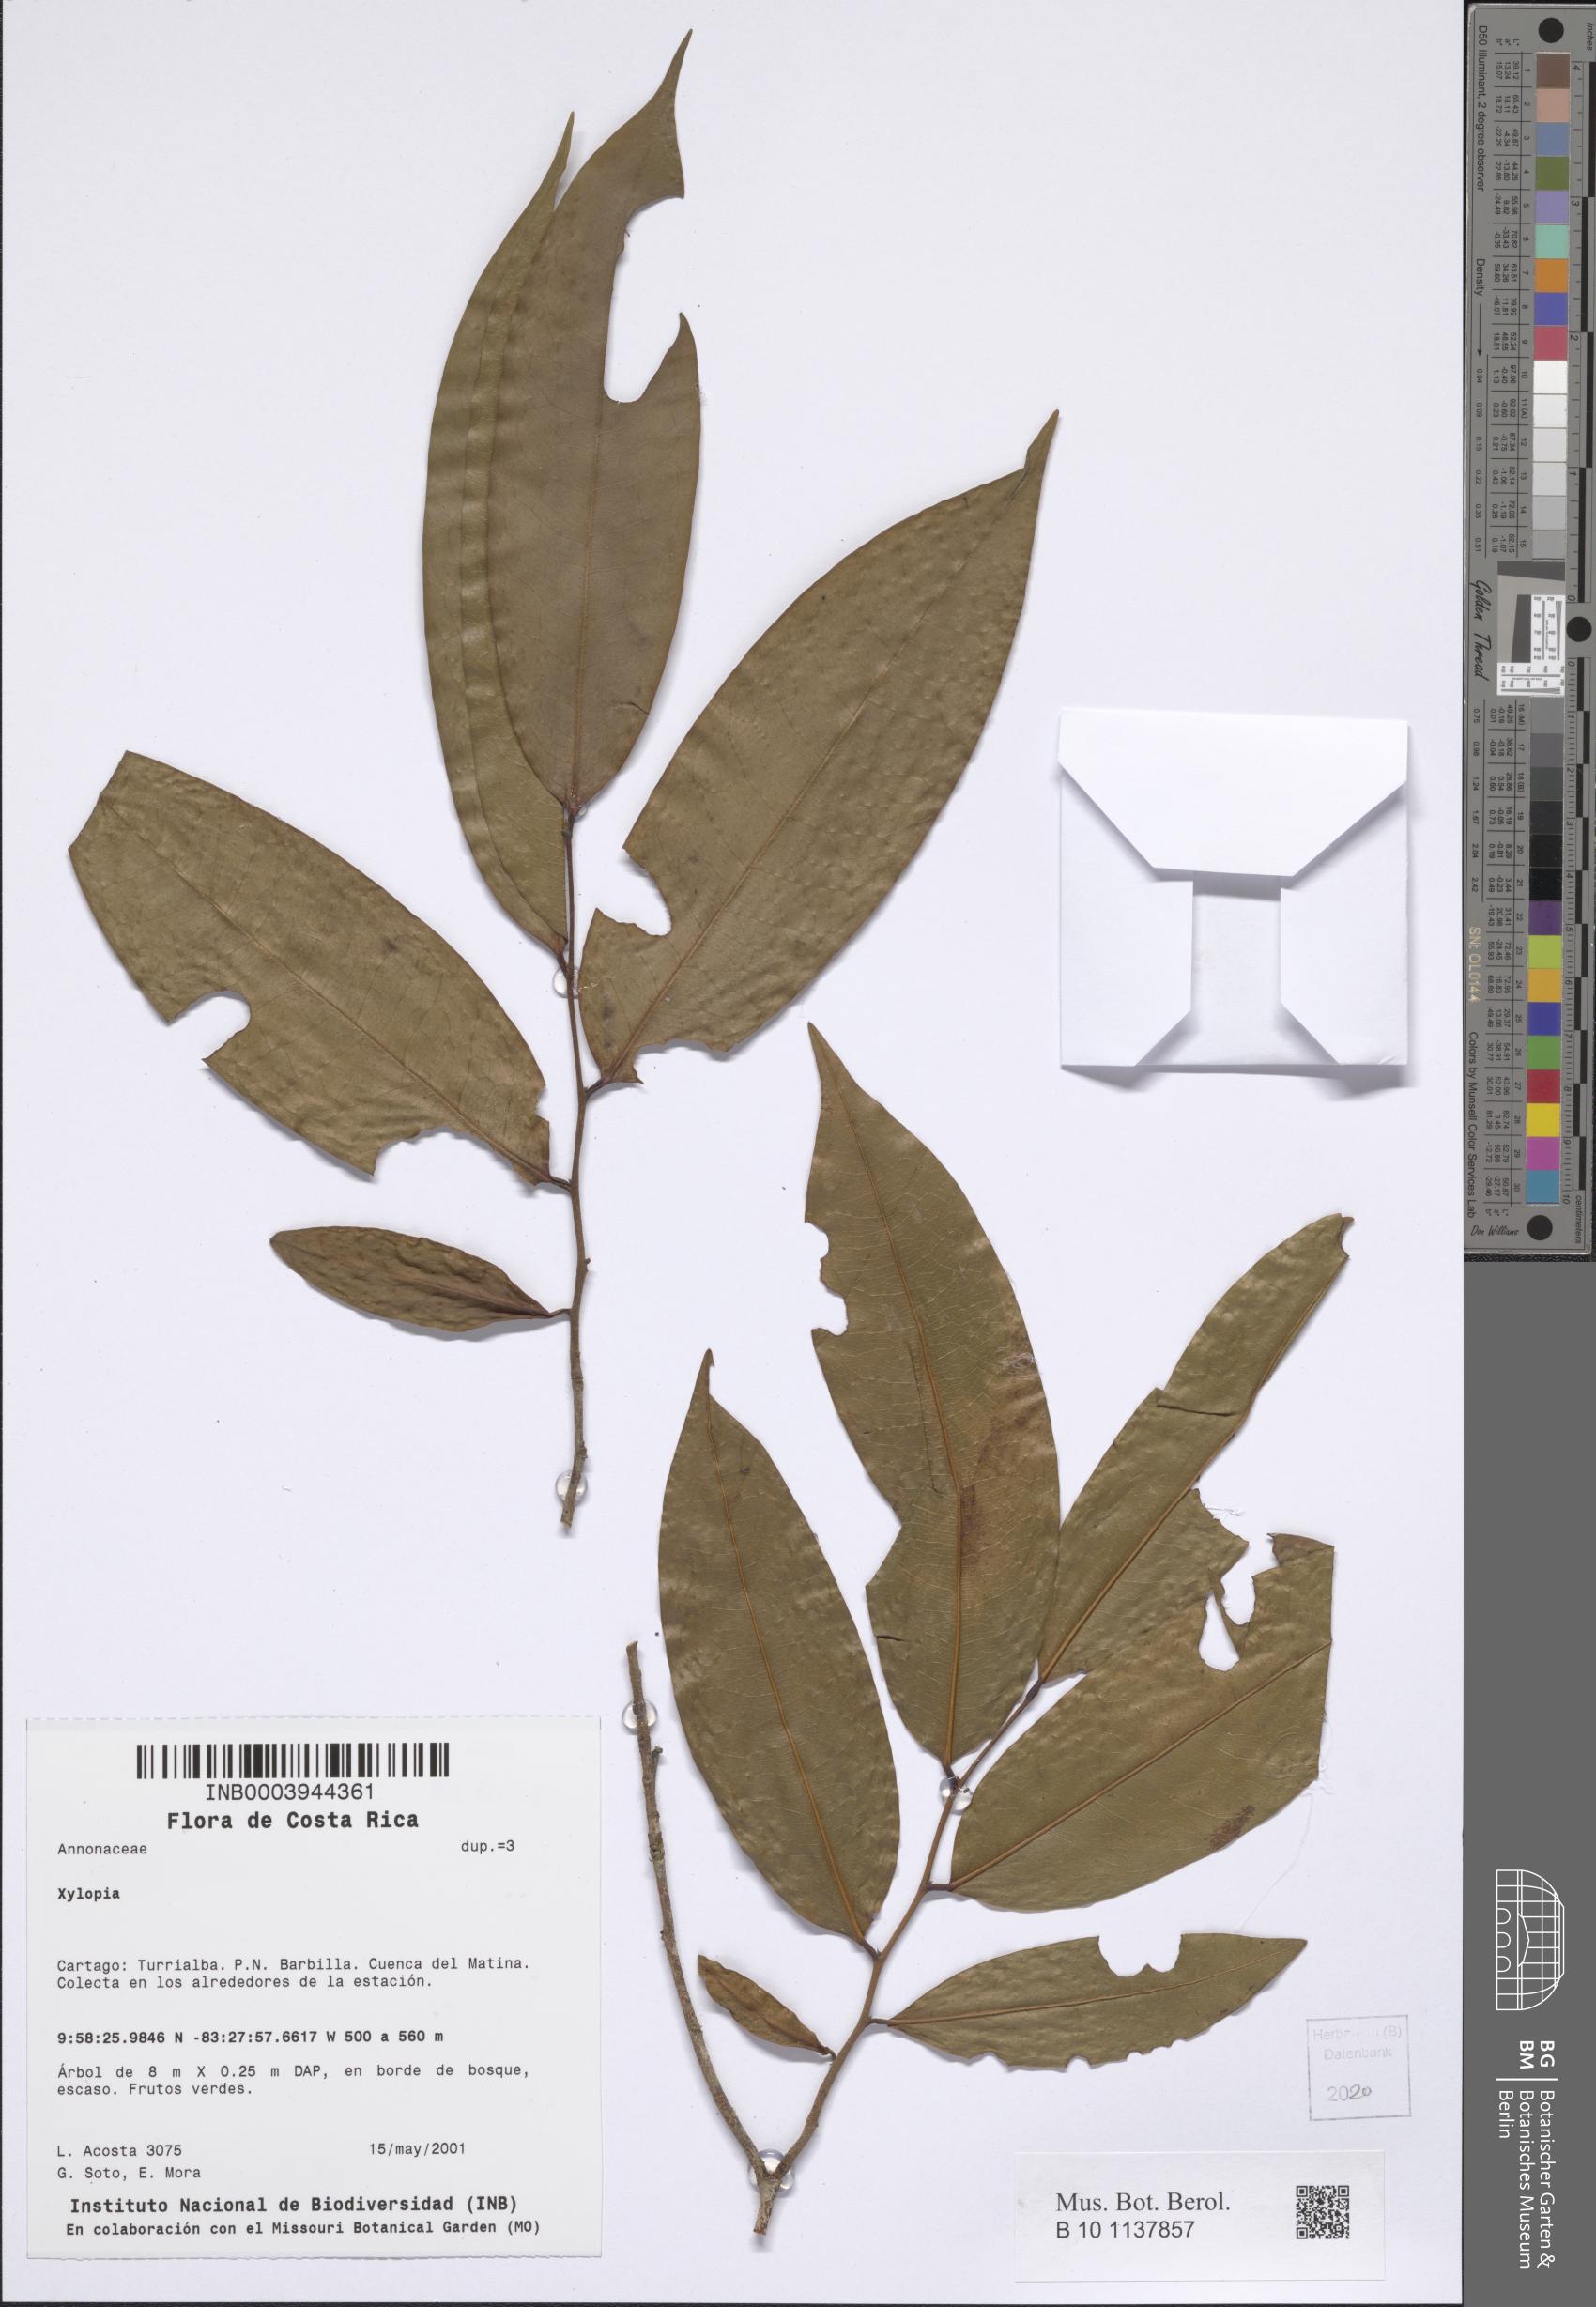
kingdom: Plantae
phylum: Tracheophyta
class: Magnoliopsida
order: Magnoliales
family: Annonaceae
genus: Xylopia
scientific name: Xylopia
